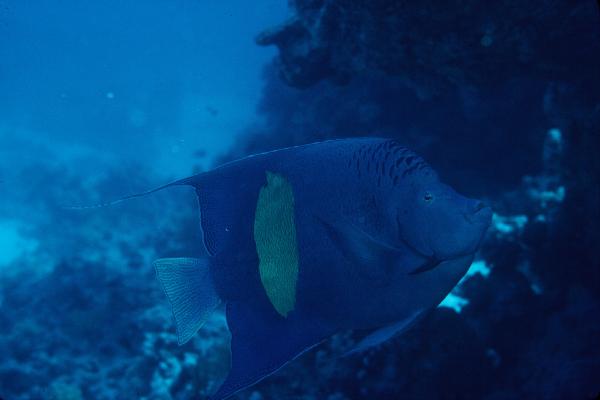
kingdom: Animalia
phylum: Chordata
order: Perciformes
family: Pomacanthidae
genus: Pomacanthus
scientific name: Pomacanthus maculosus
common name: Yellowbar angelfish
